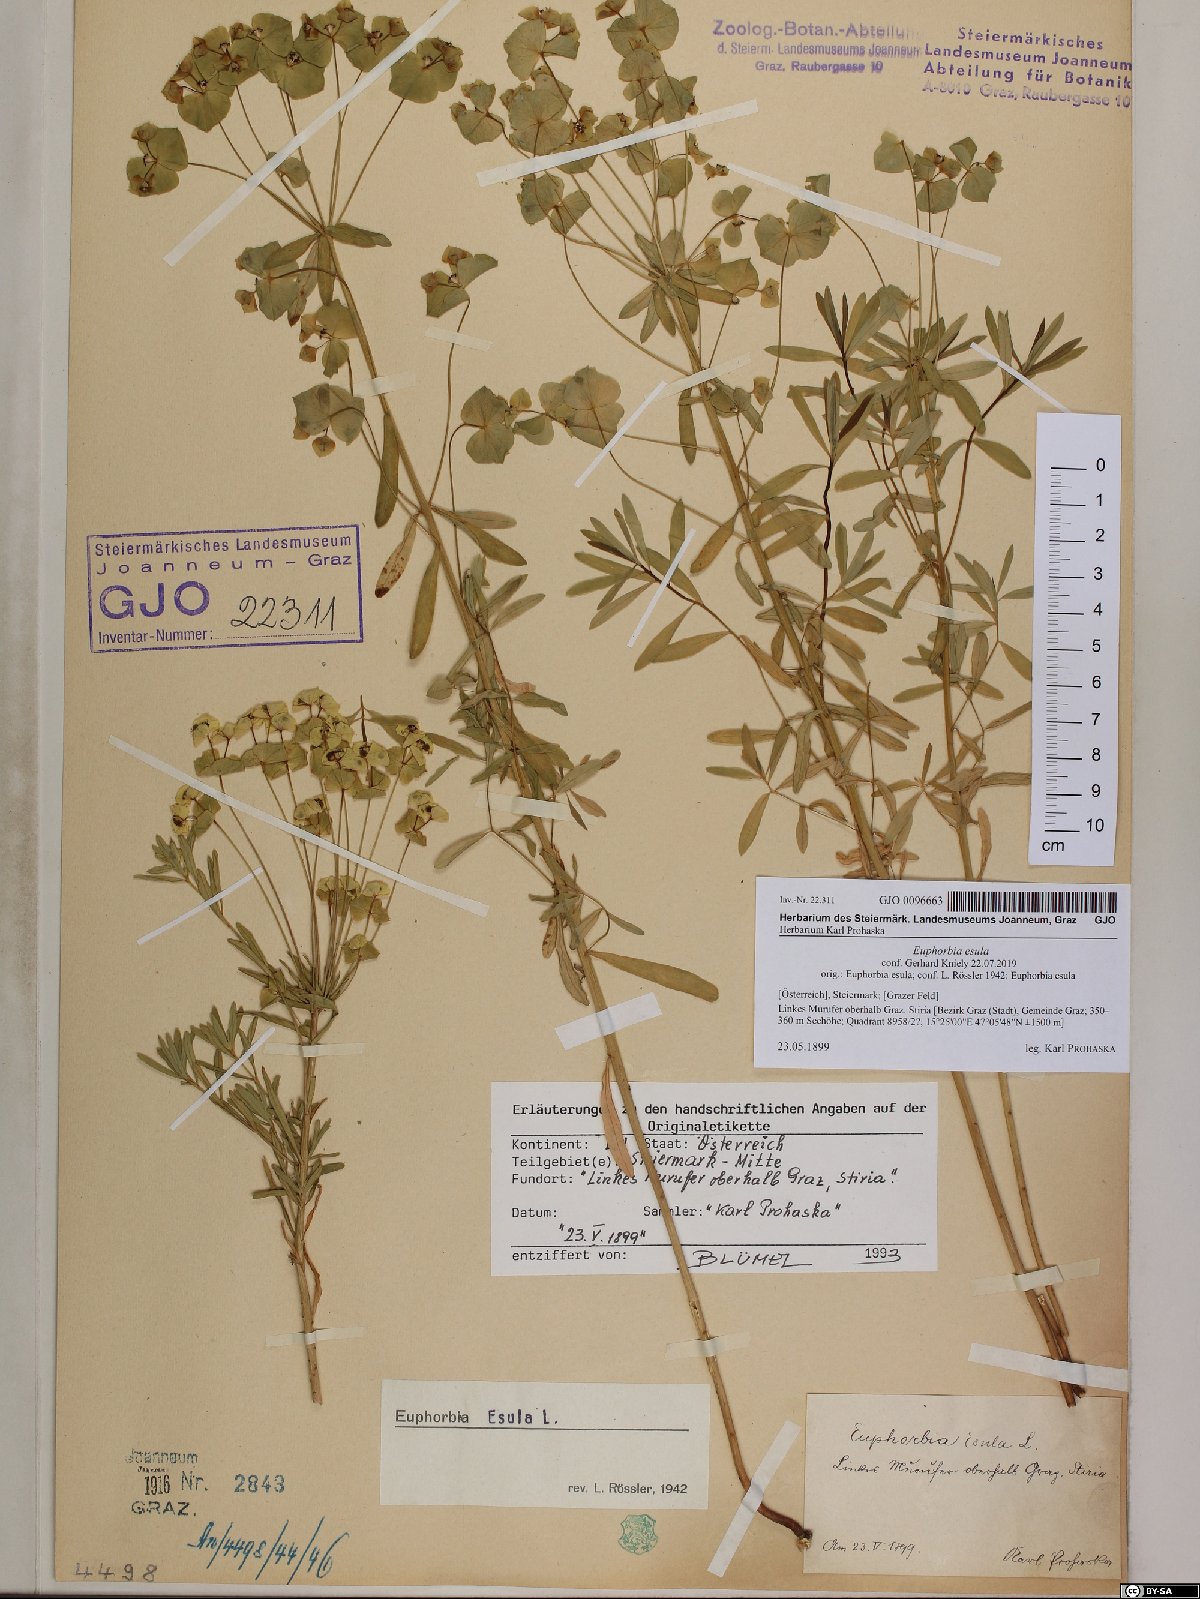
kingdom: Plantae
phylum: Tracheophyta
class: Magnoliopsida
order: Malpighiales
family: Euphorbiaceae
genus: Euphorbia
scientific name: Euphorbia esula
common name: Leafy spurge
